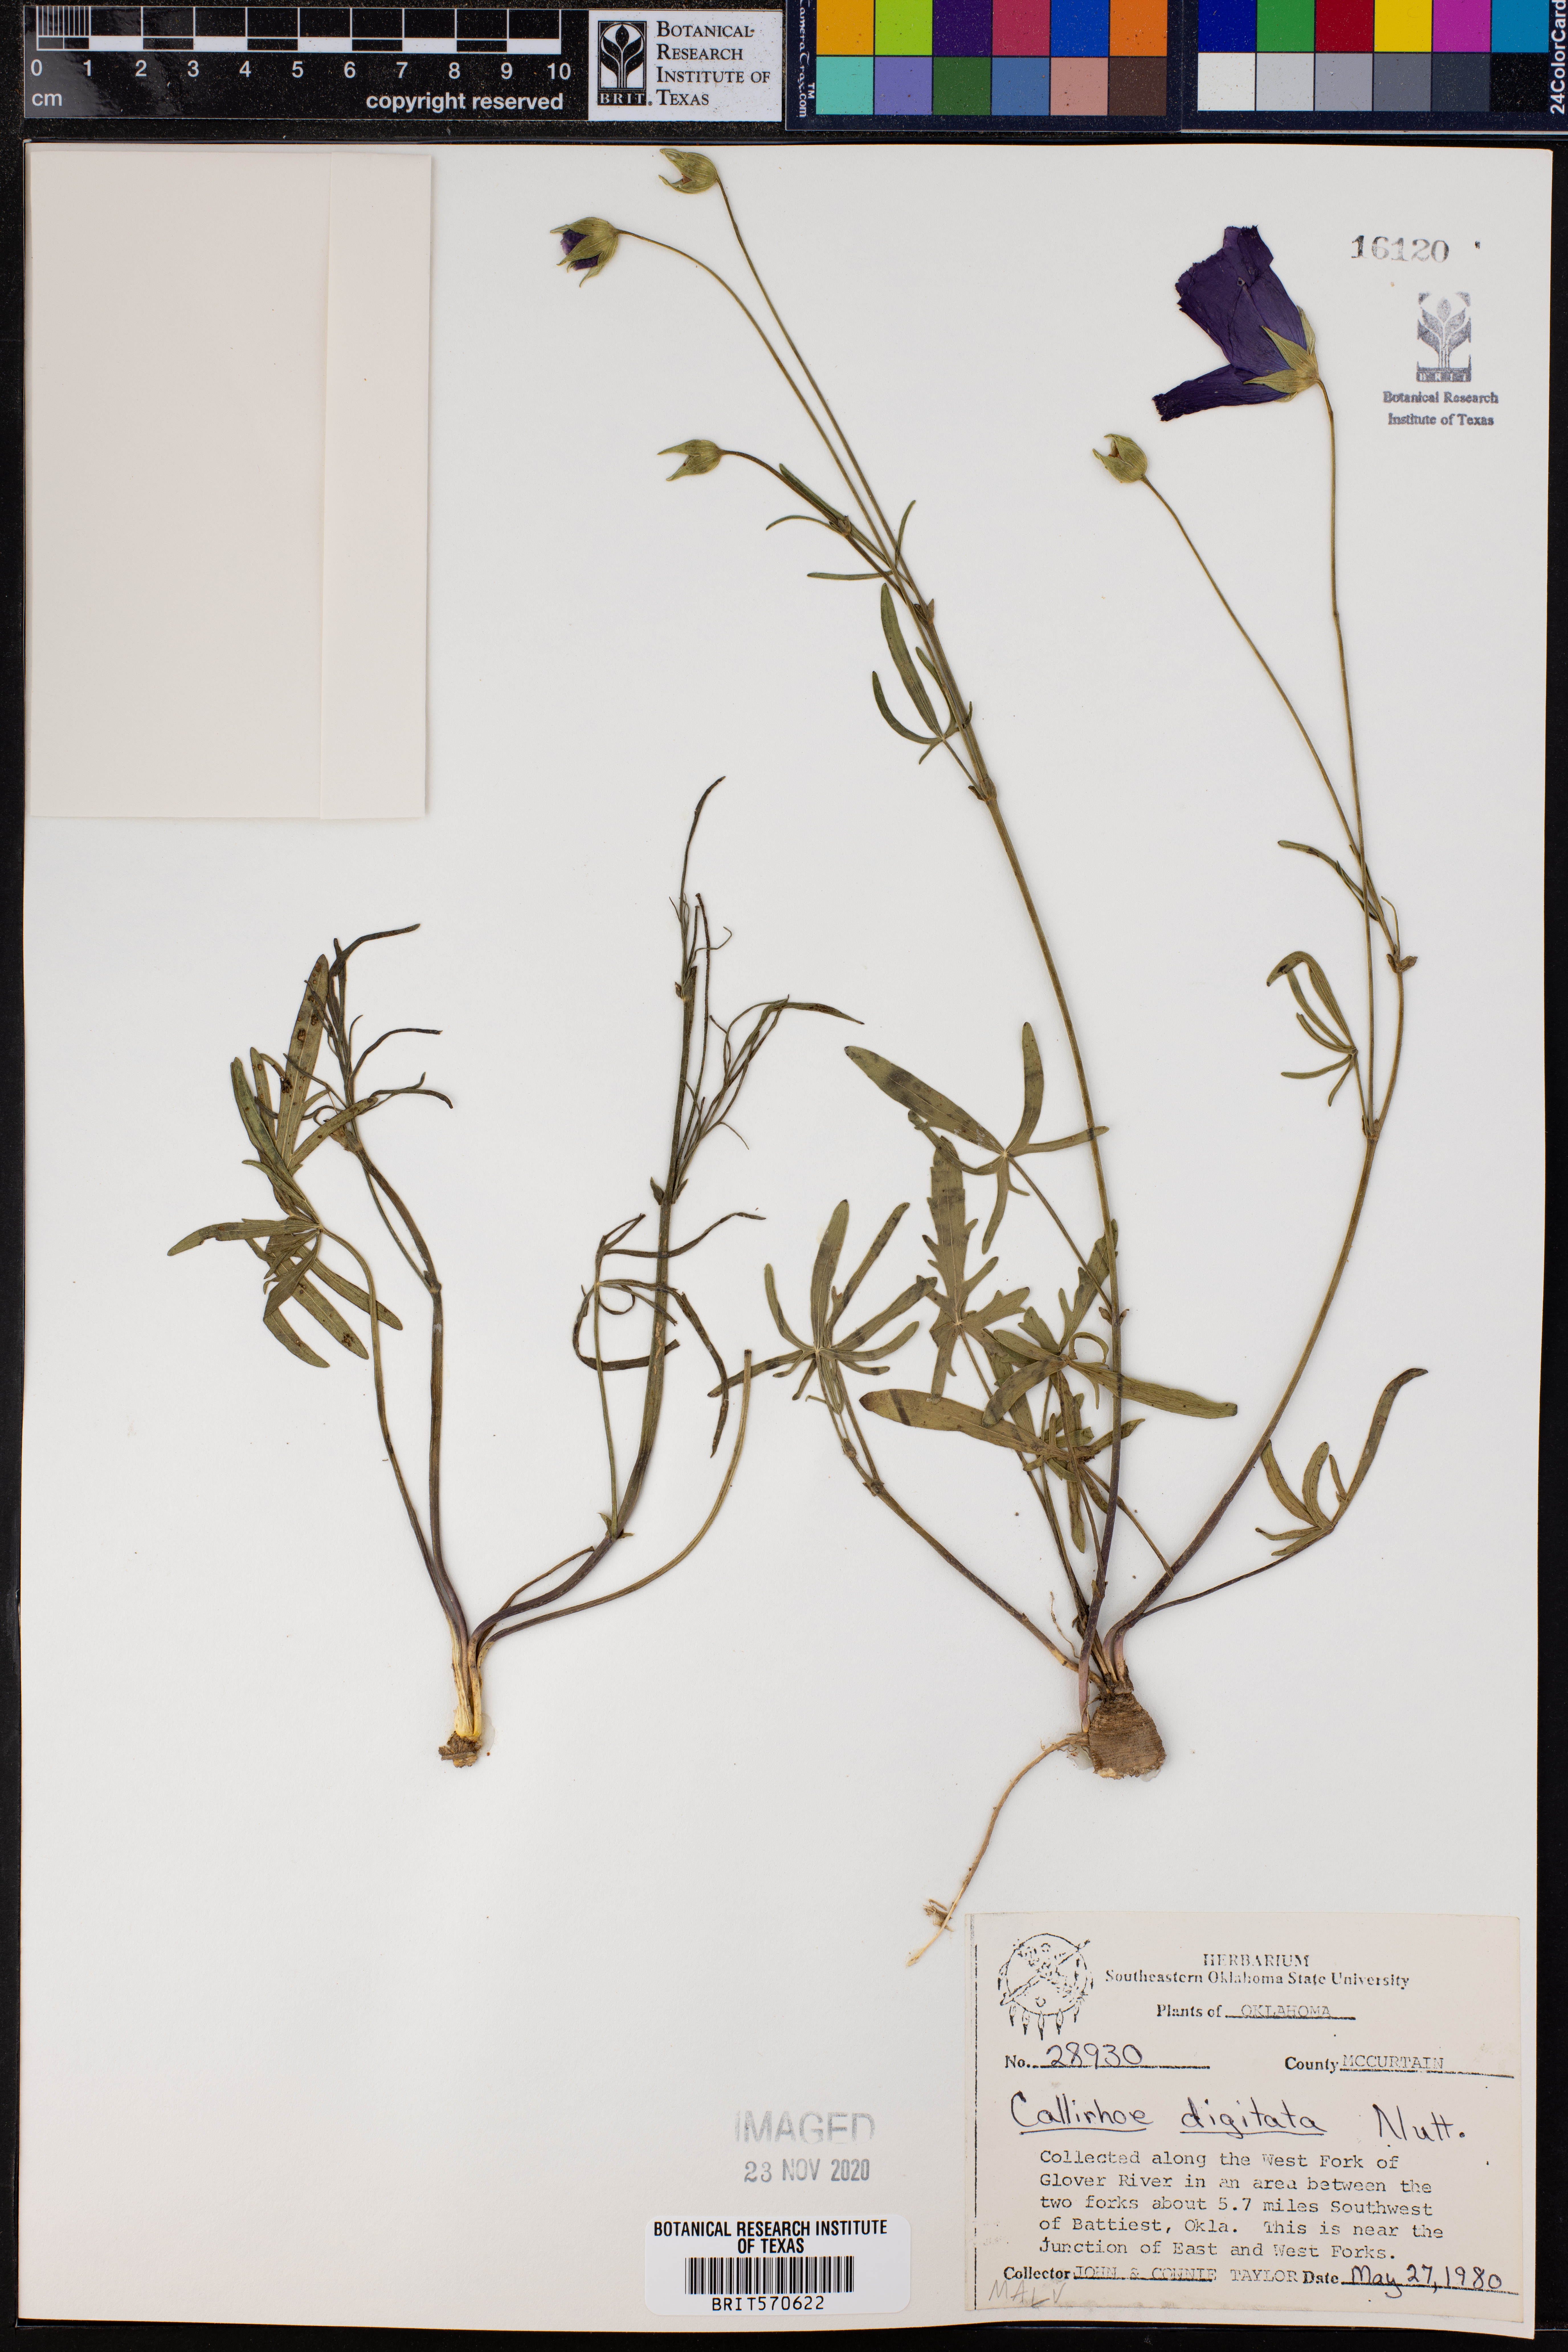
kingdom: Plantae
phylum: Tracheophyta
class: Magnoliopsida
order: Malvales
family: Malvaceae
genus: Callirhoe
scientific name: Callirhoe digitata
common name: Finger poppy-mallow
